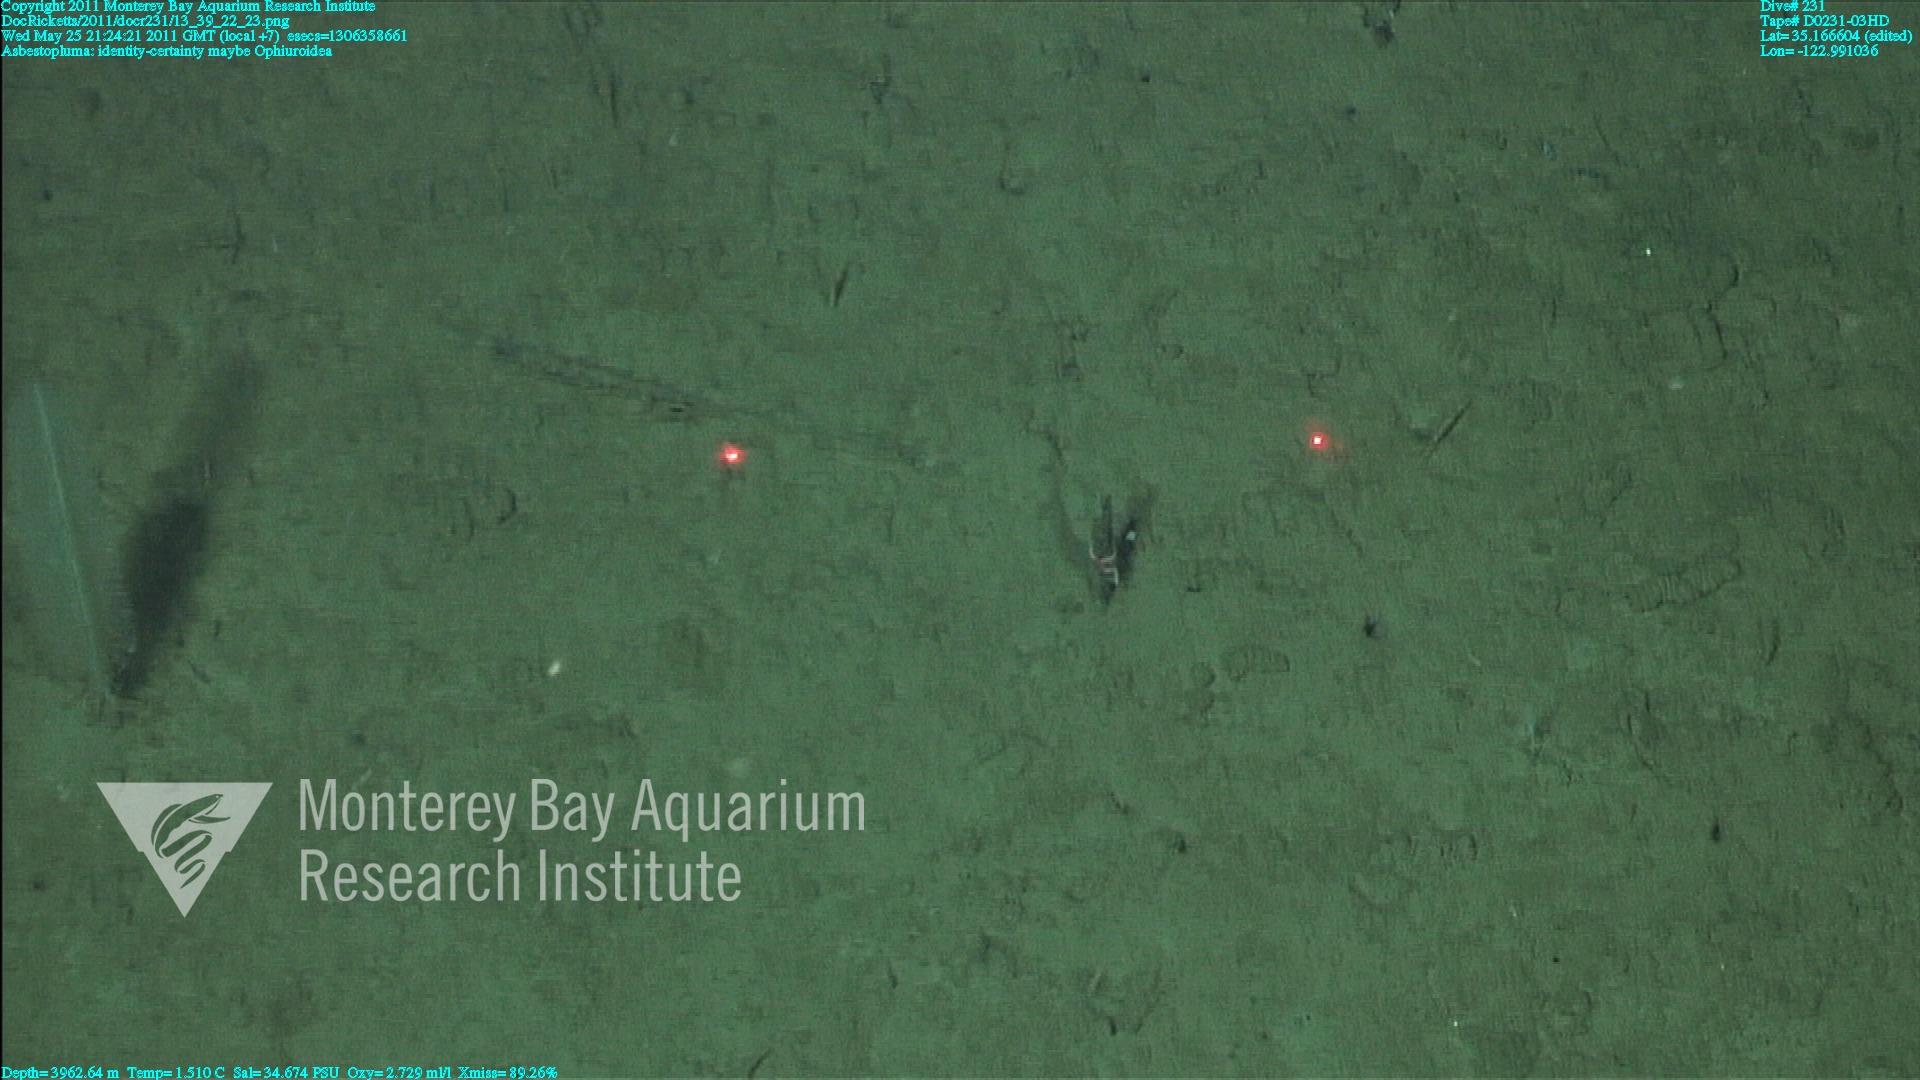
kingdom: Animalia
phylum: Porifera
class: Demospongiae
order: Poecilosclerida
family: Cladorhizidae
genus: Asbestopluma
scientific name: Asbestopluma
